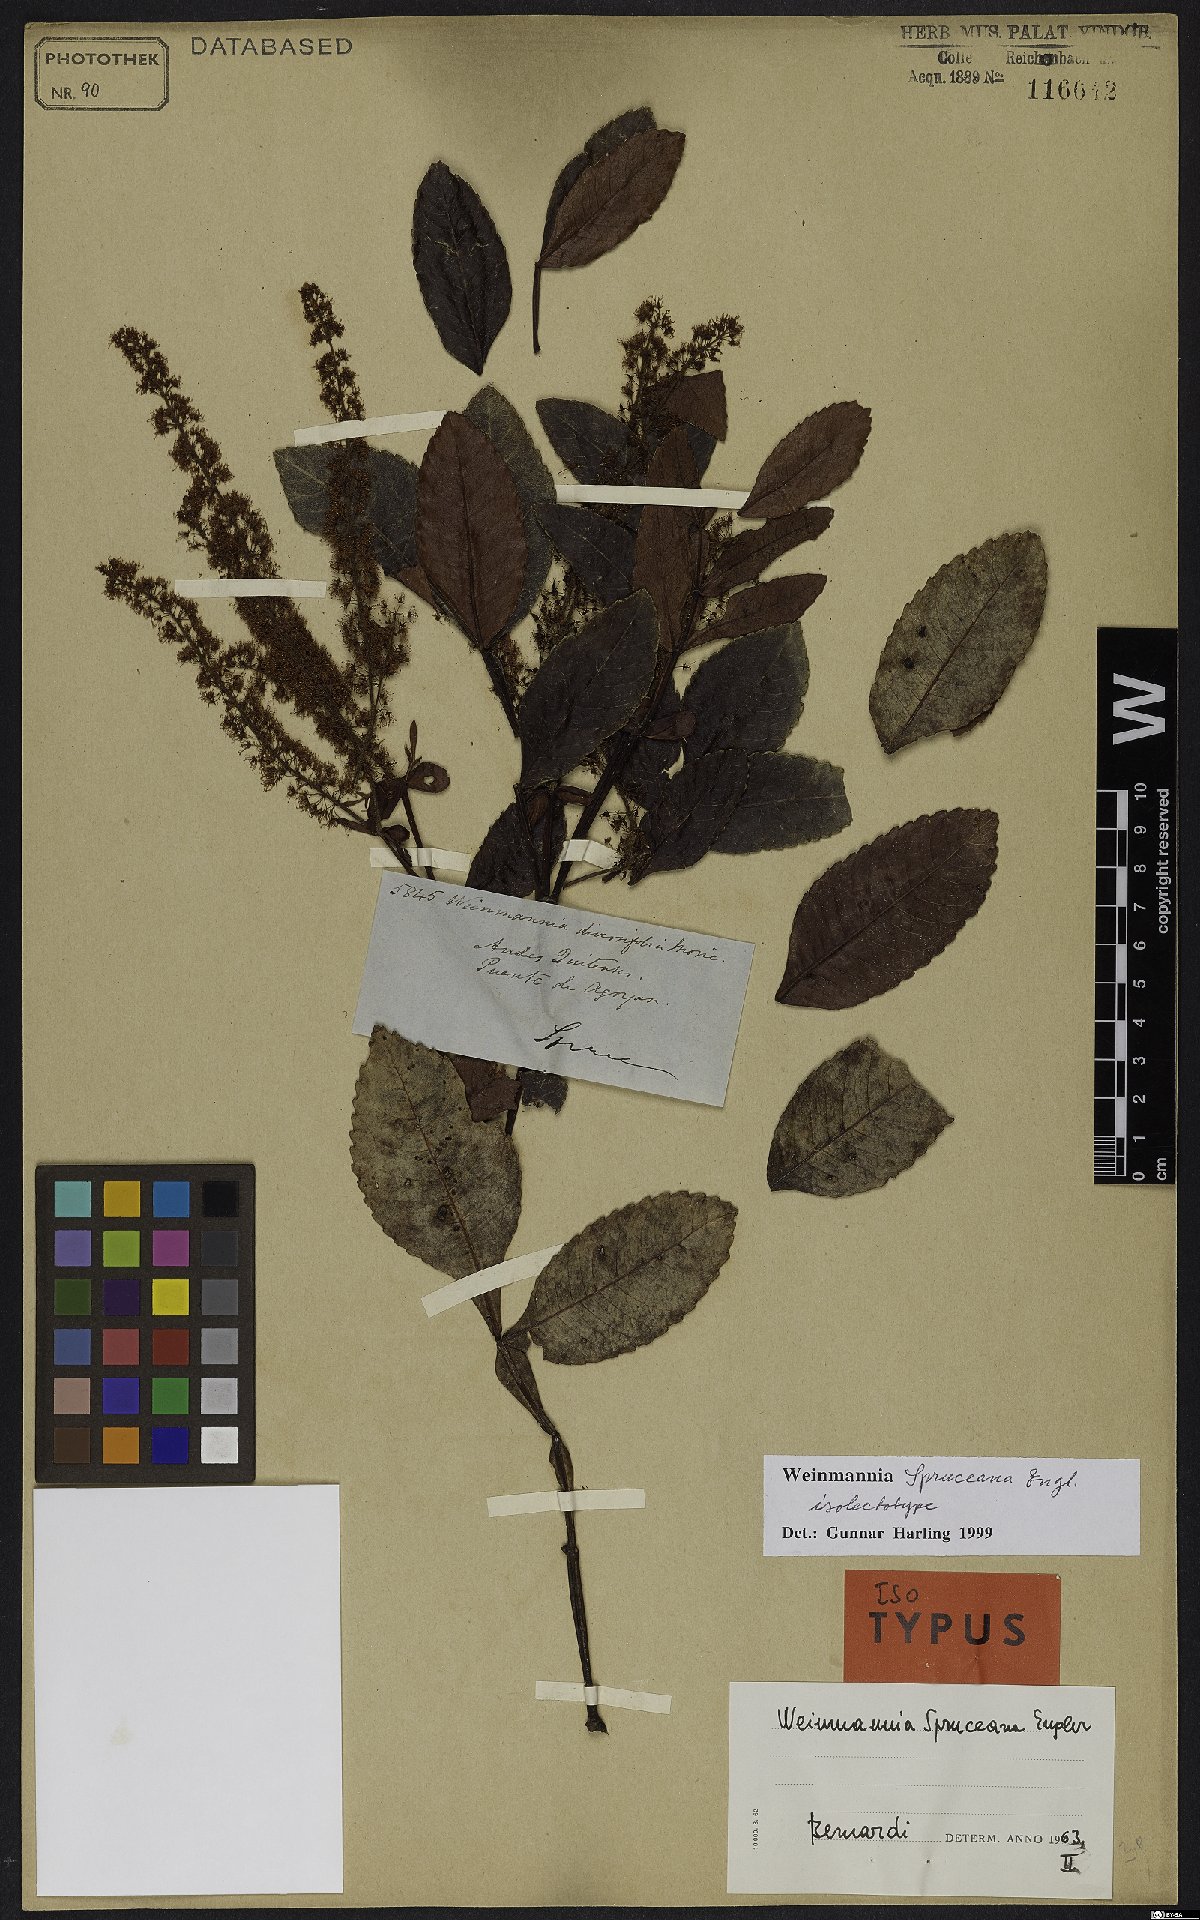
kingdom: Plantae
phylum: Tracheophyta
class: Magnoliopsida
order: Oxalidales
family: Cunoniaceae
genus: Weinmannia
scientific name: Weinmannia spruceana
